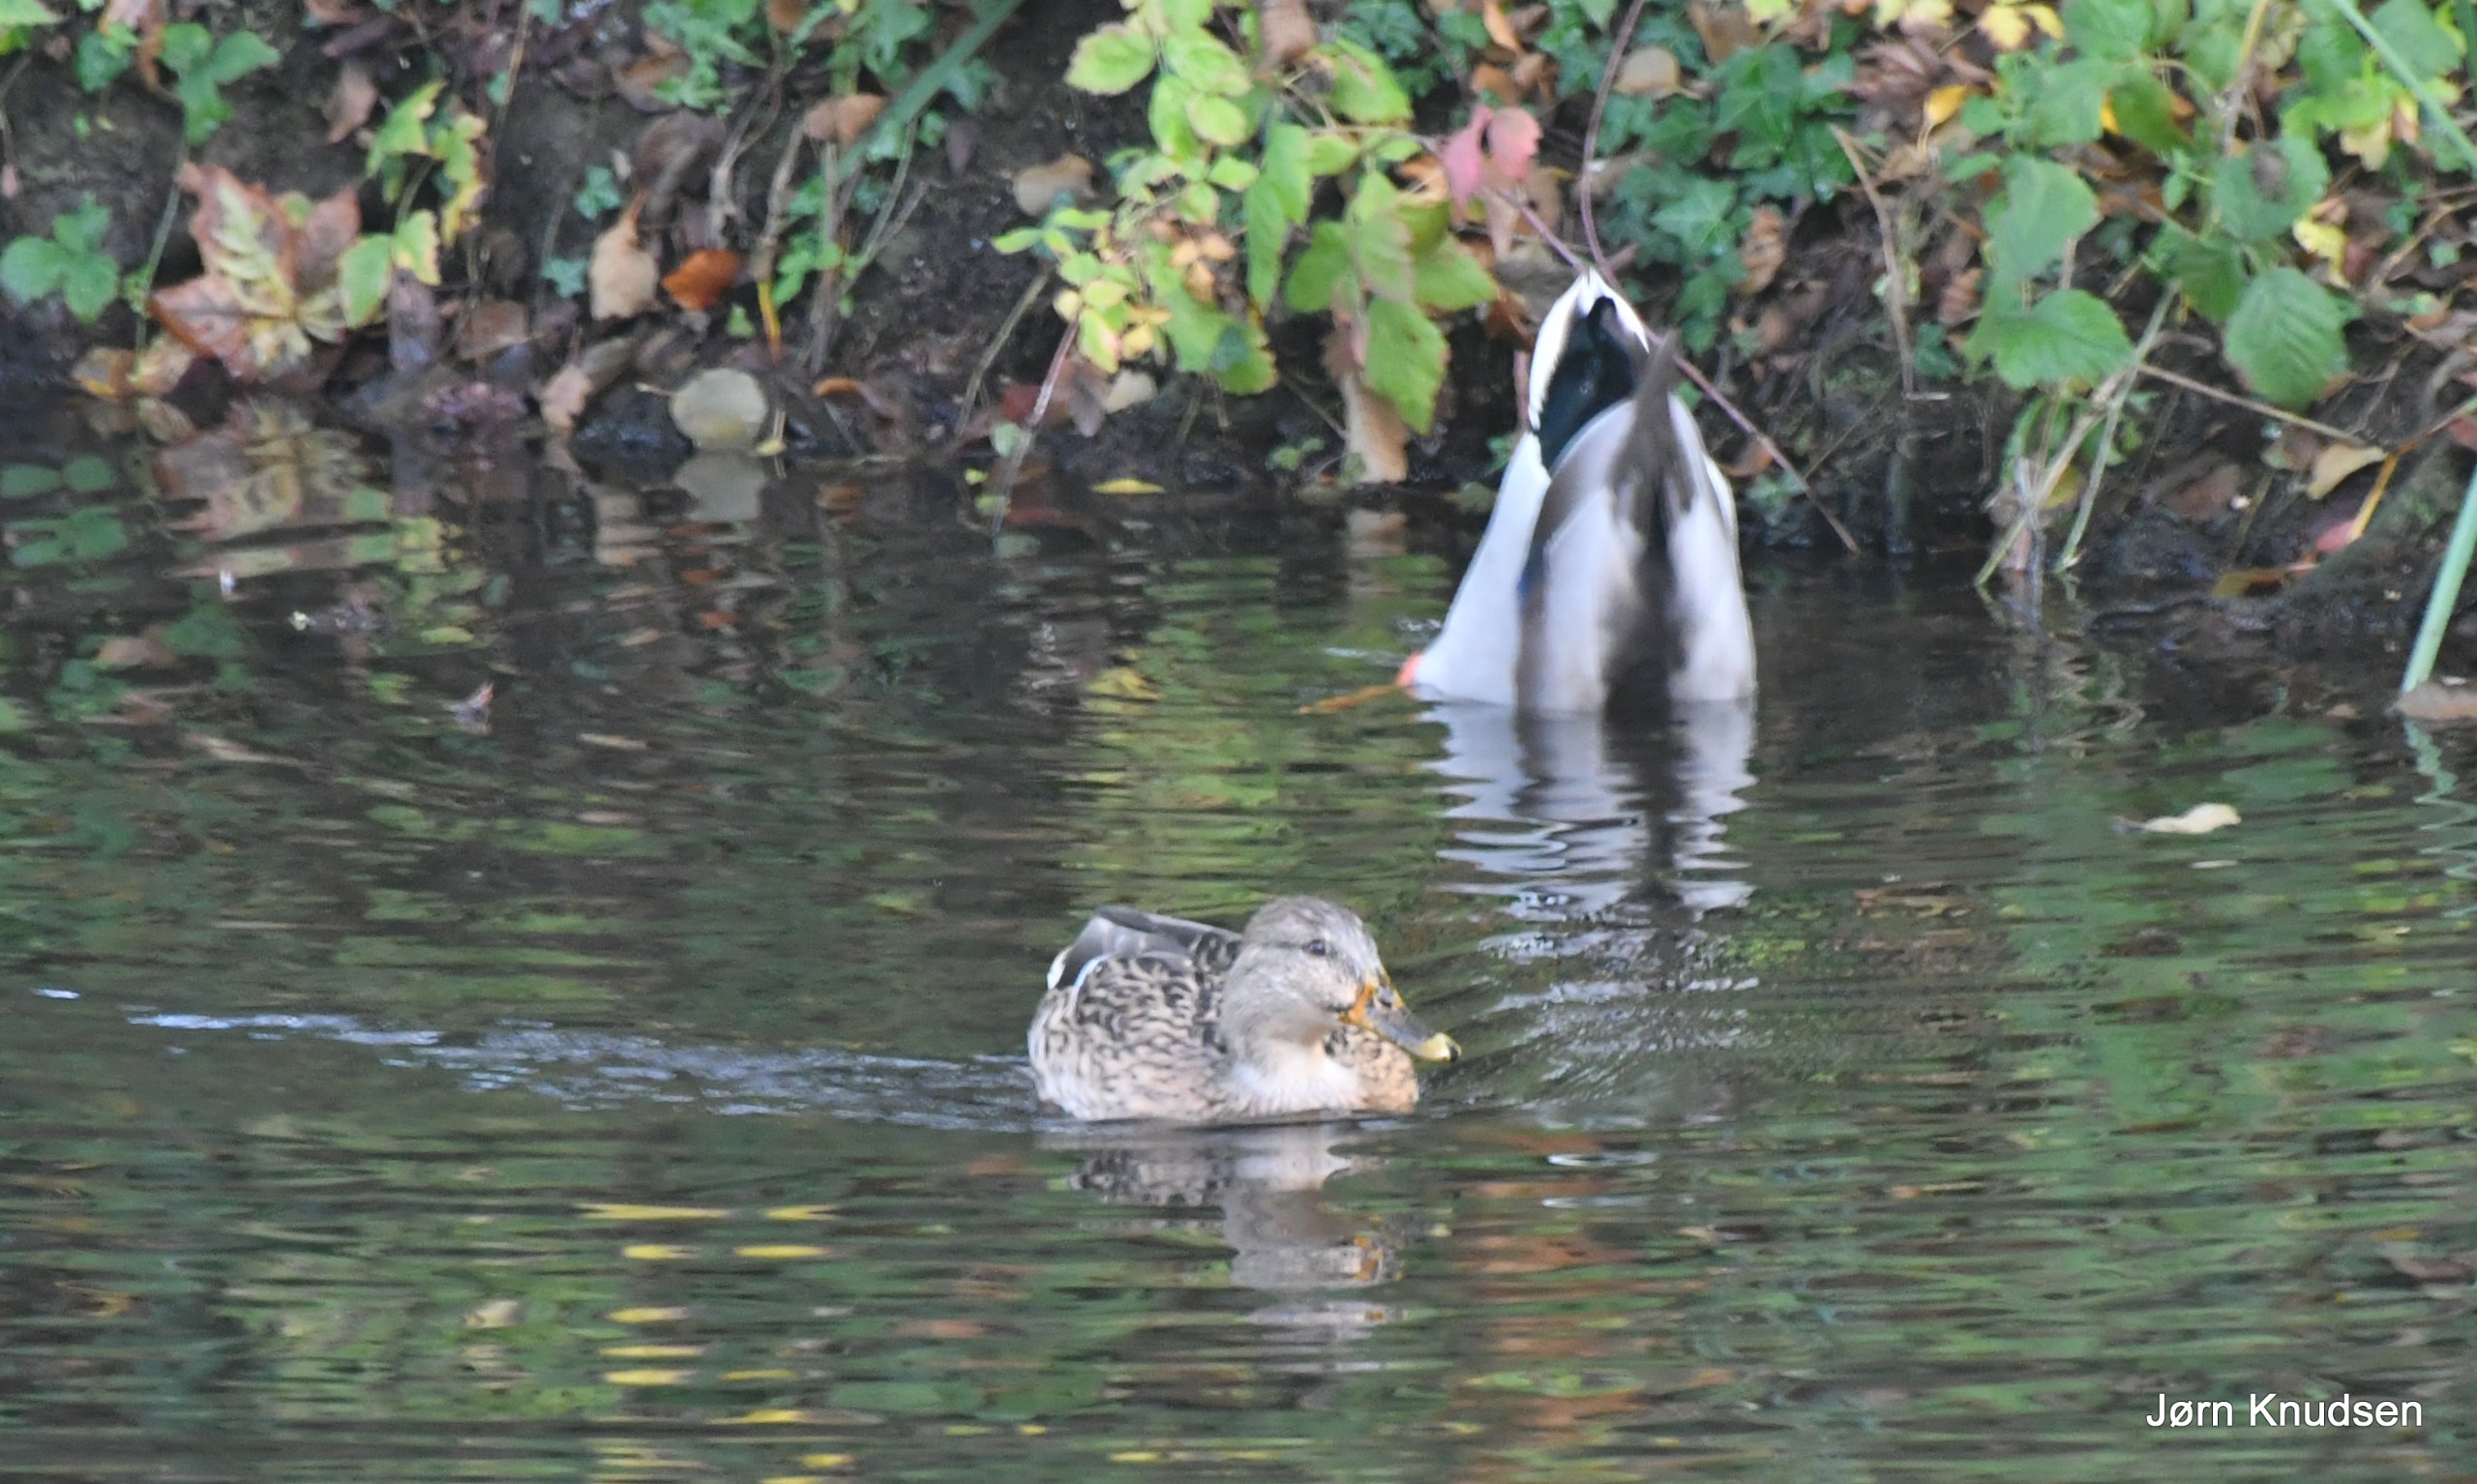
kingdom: Animalia
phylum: Chordata
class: Aves
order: Anseriformes
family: Anatidae
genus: Anas
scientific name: Anas platyrhynchos
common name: Gråand
